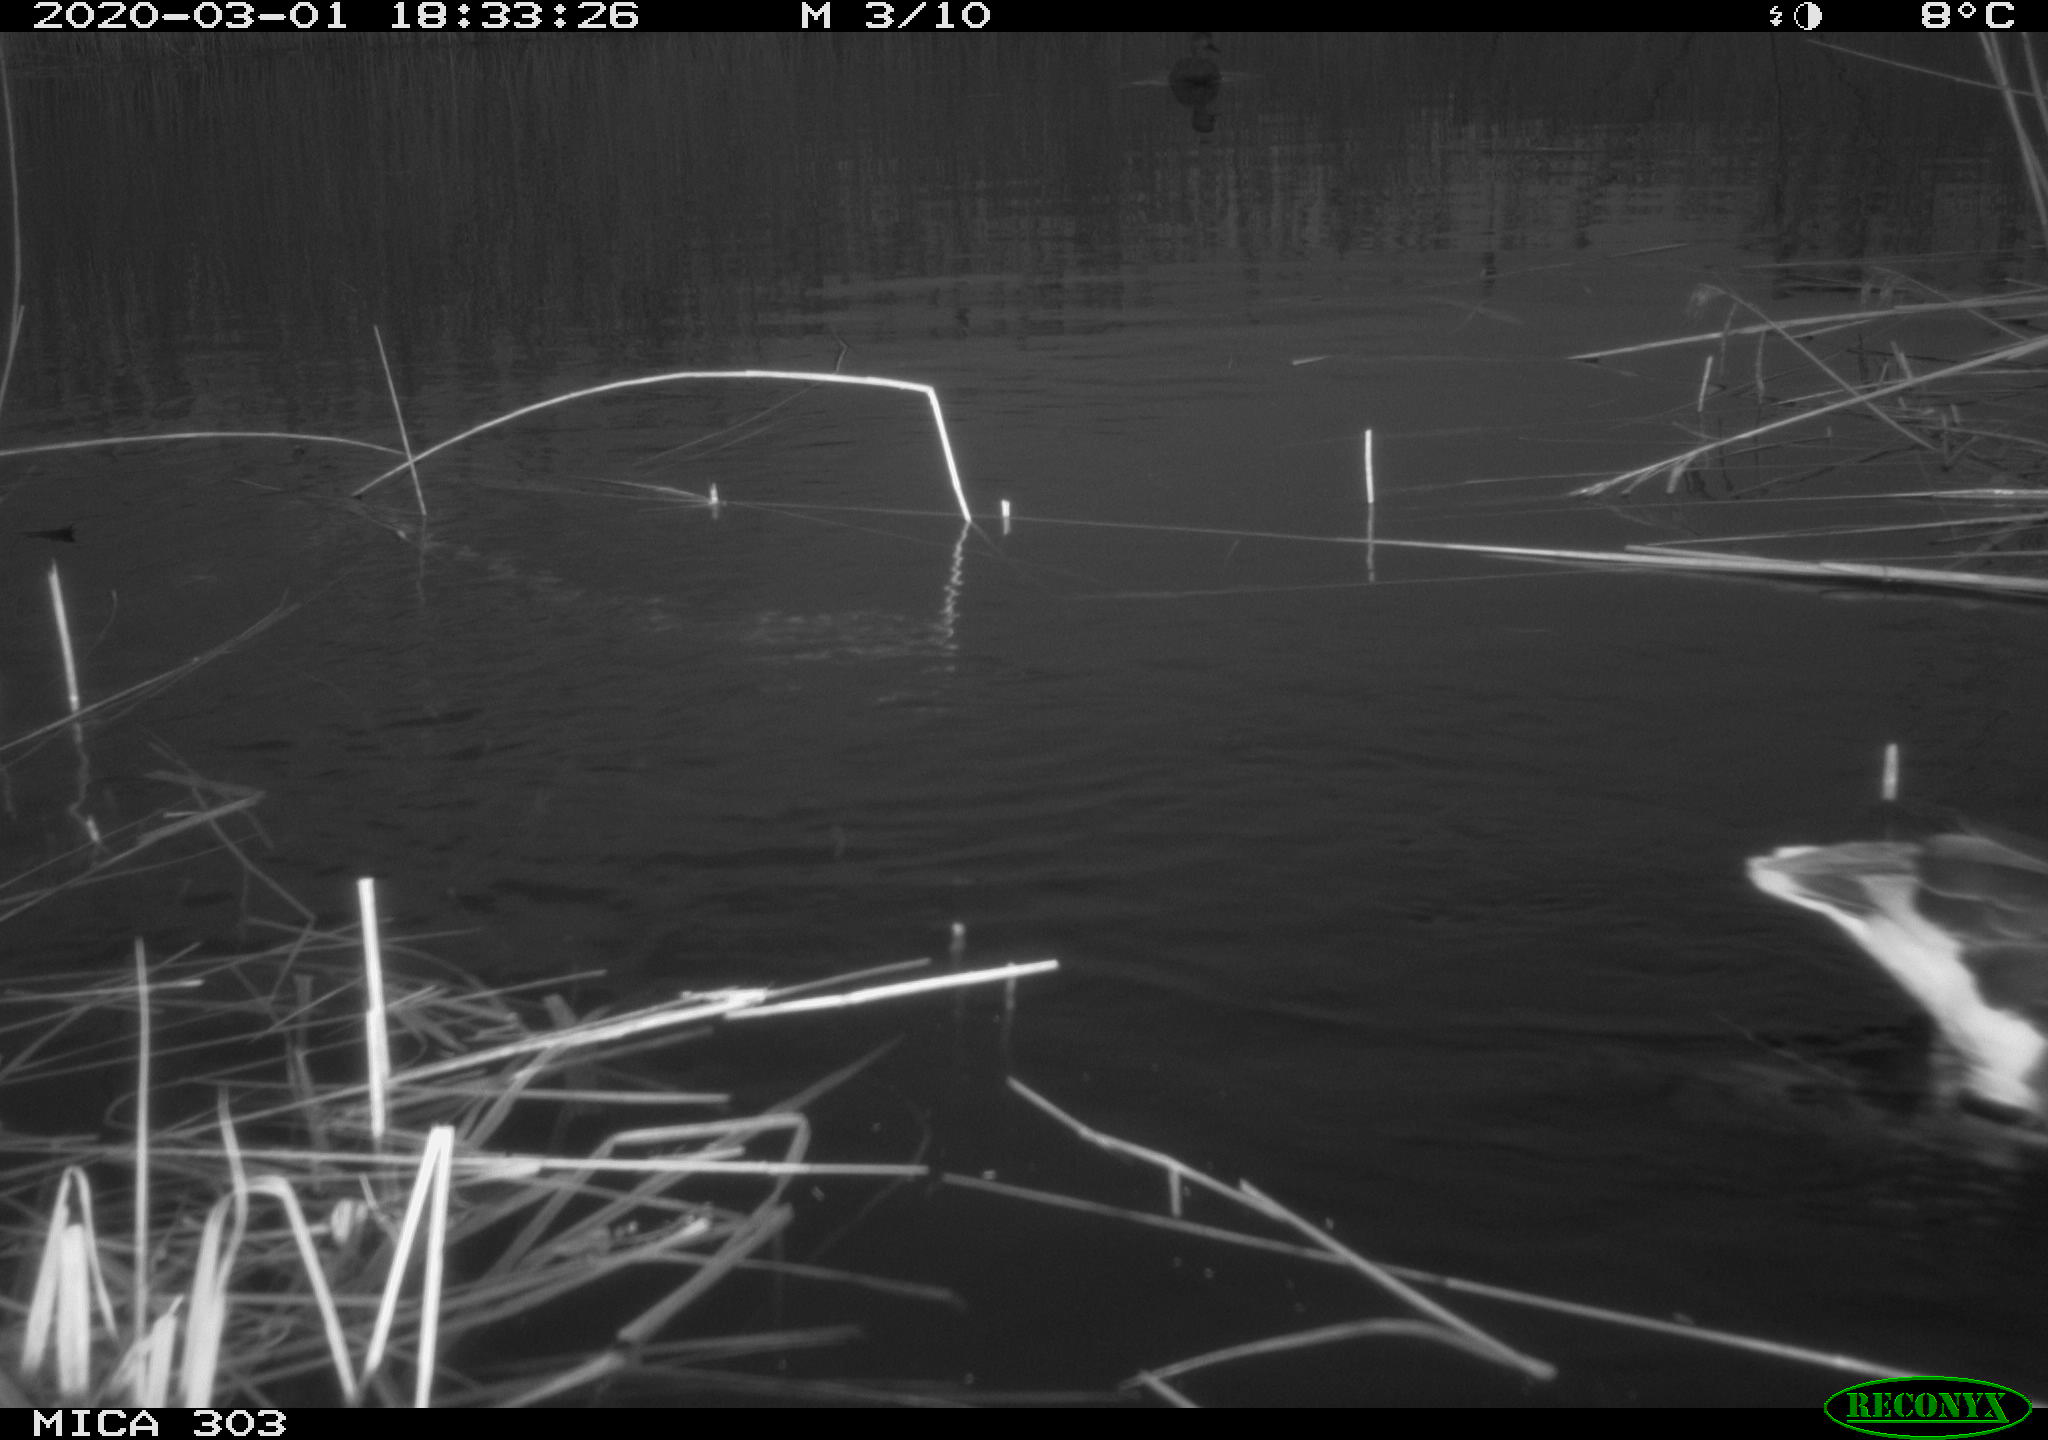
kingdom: Animalia
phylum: Chordata
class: Aves
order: Anseriformes
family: Anatidae
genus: Anser
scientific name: Anser anser
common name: Greylag goose
